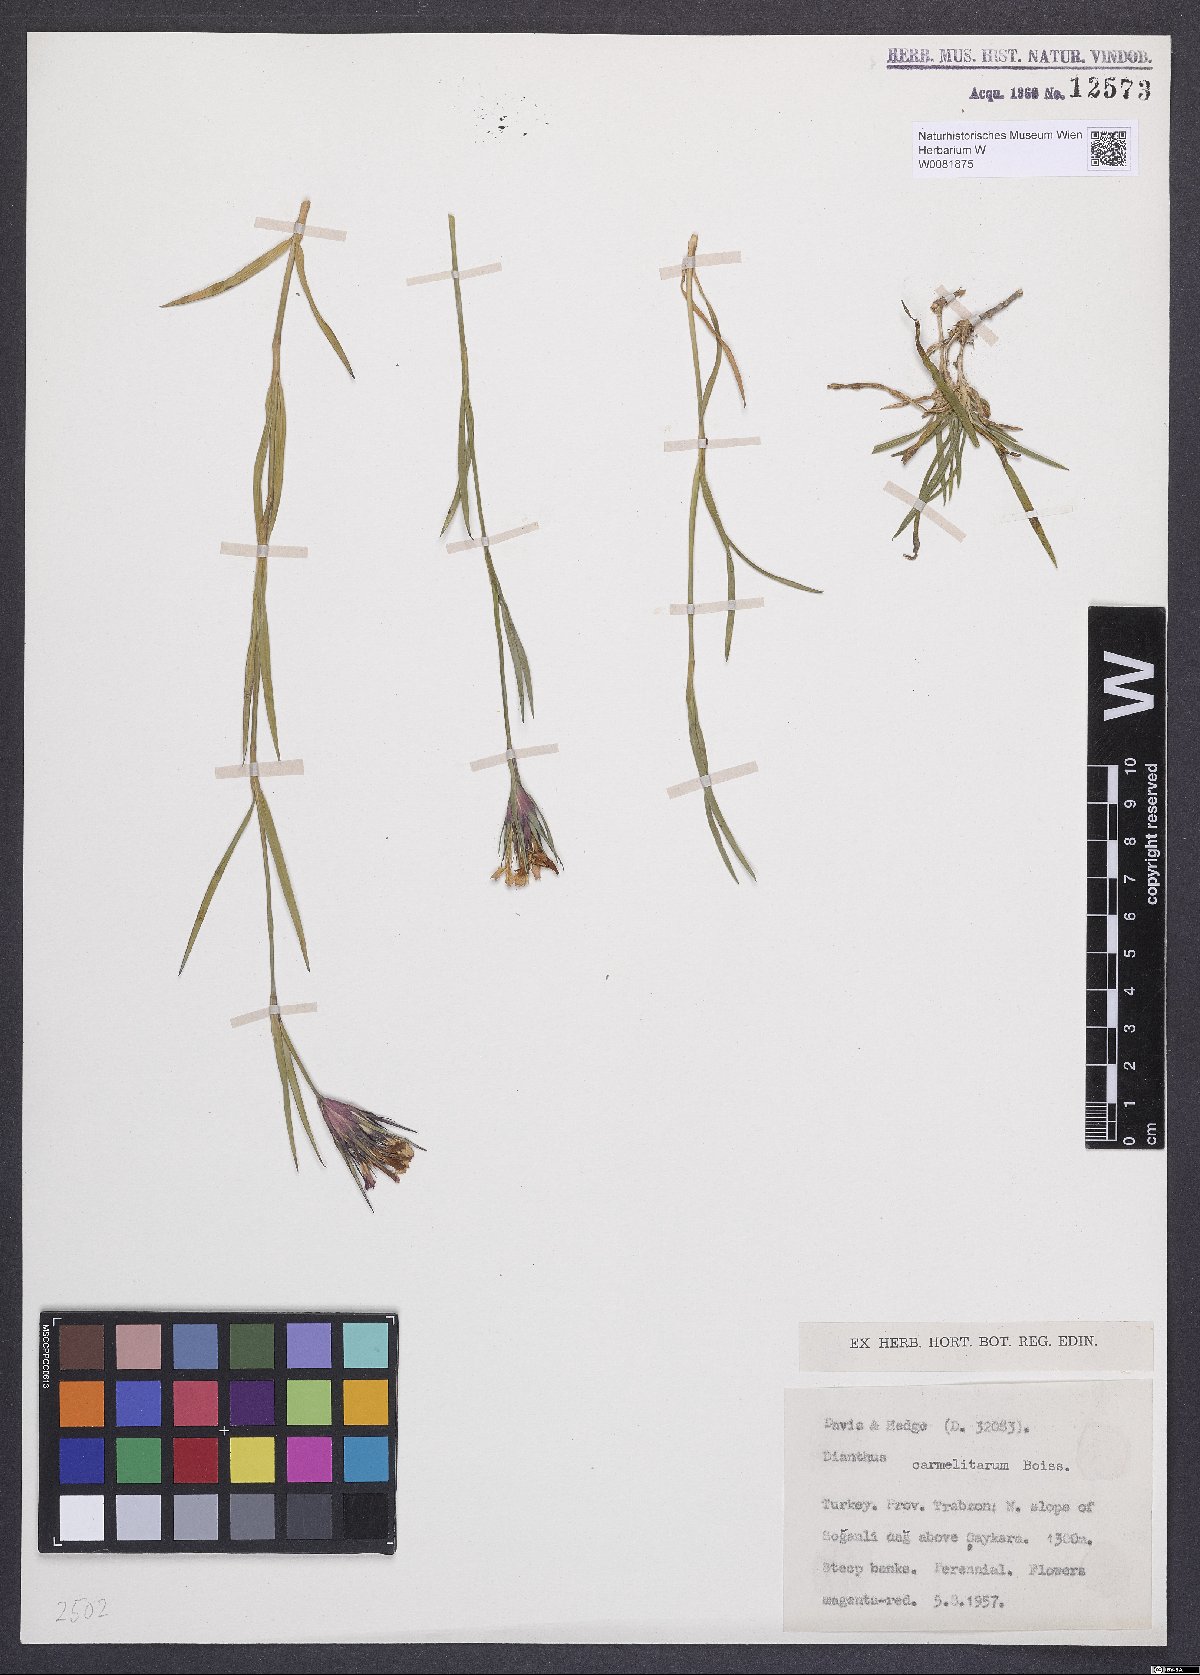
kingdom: Plantae
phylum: Tracheophyta
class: Magnoliopsida
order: Caryophyllales
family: Caryophyllaceae
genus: Dianthus
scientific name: Dianthus carmelitarum
